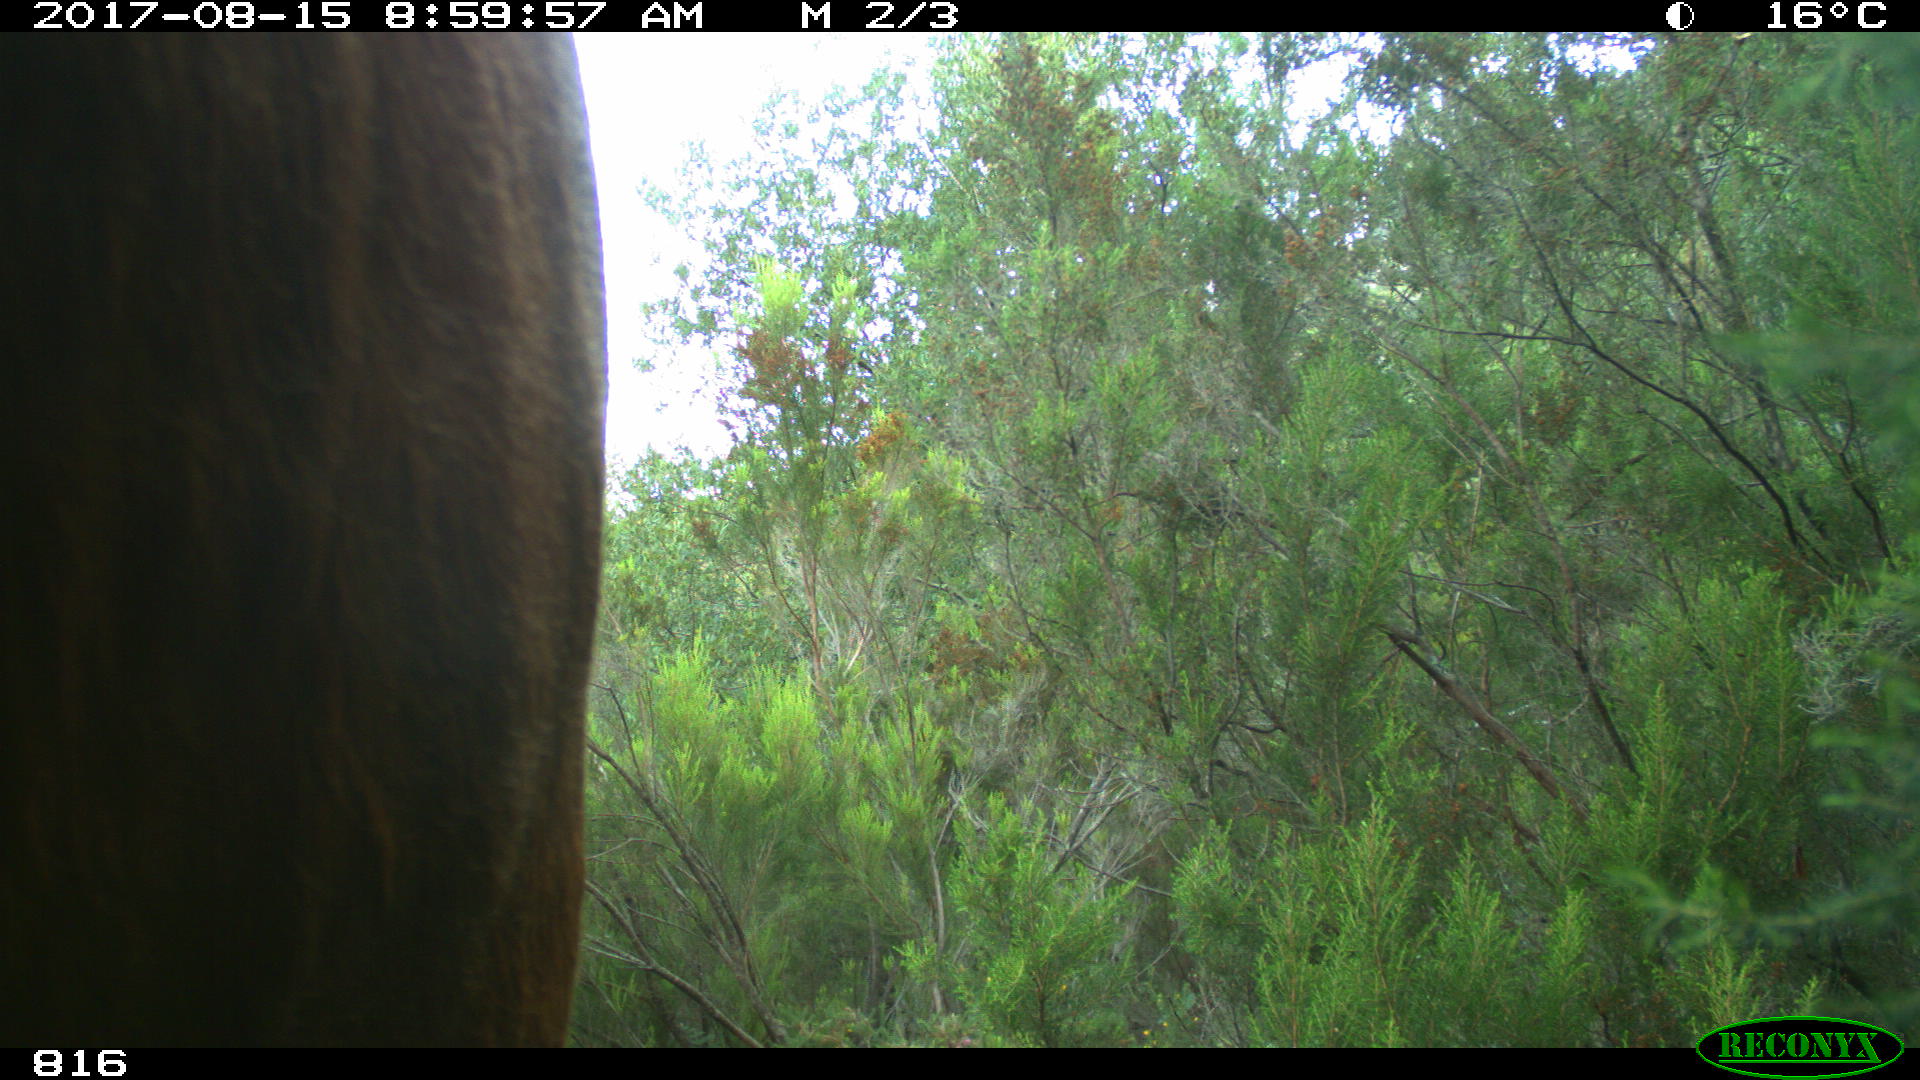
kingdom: Animalia
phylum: Chordata
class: Mammalia
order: Artiodactyla
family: Bovidae
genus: Bos
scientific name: Bos taurus
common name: Domesticated cattle
